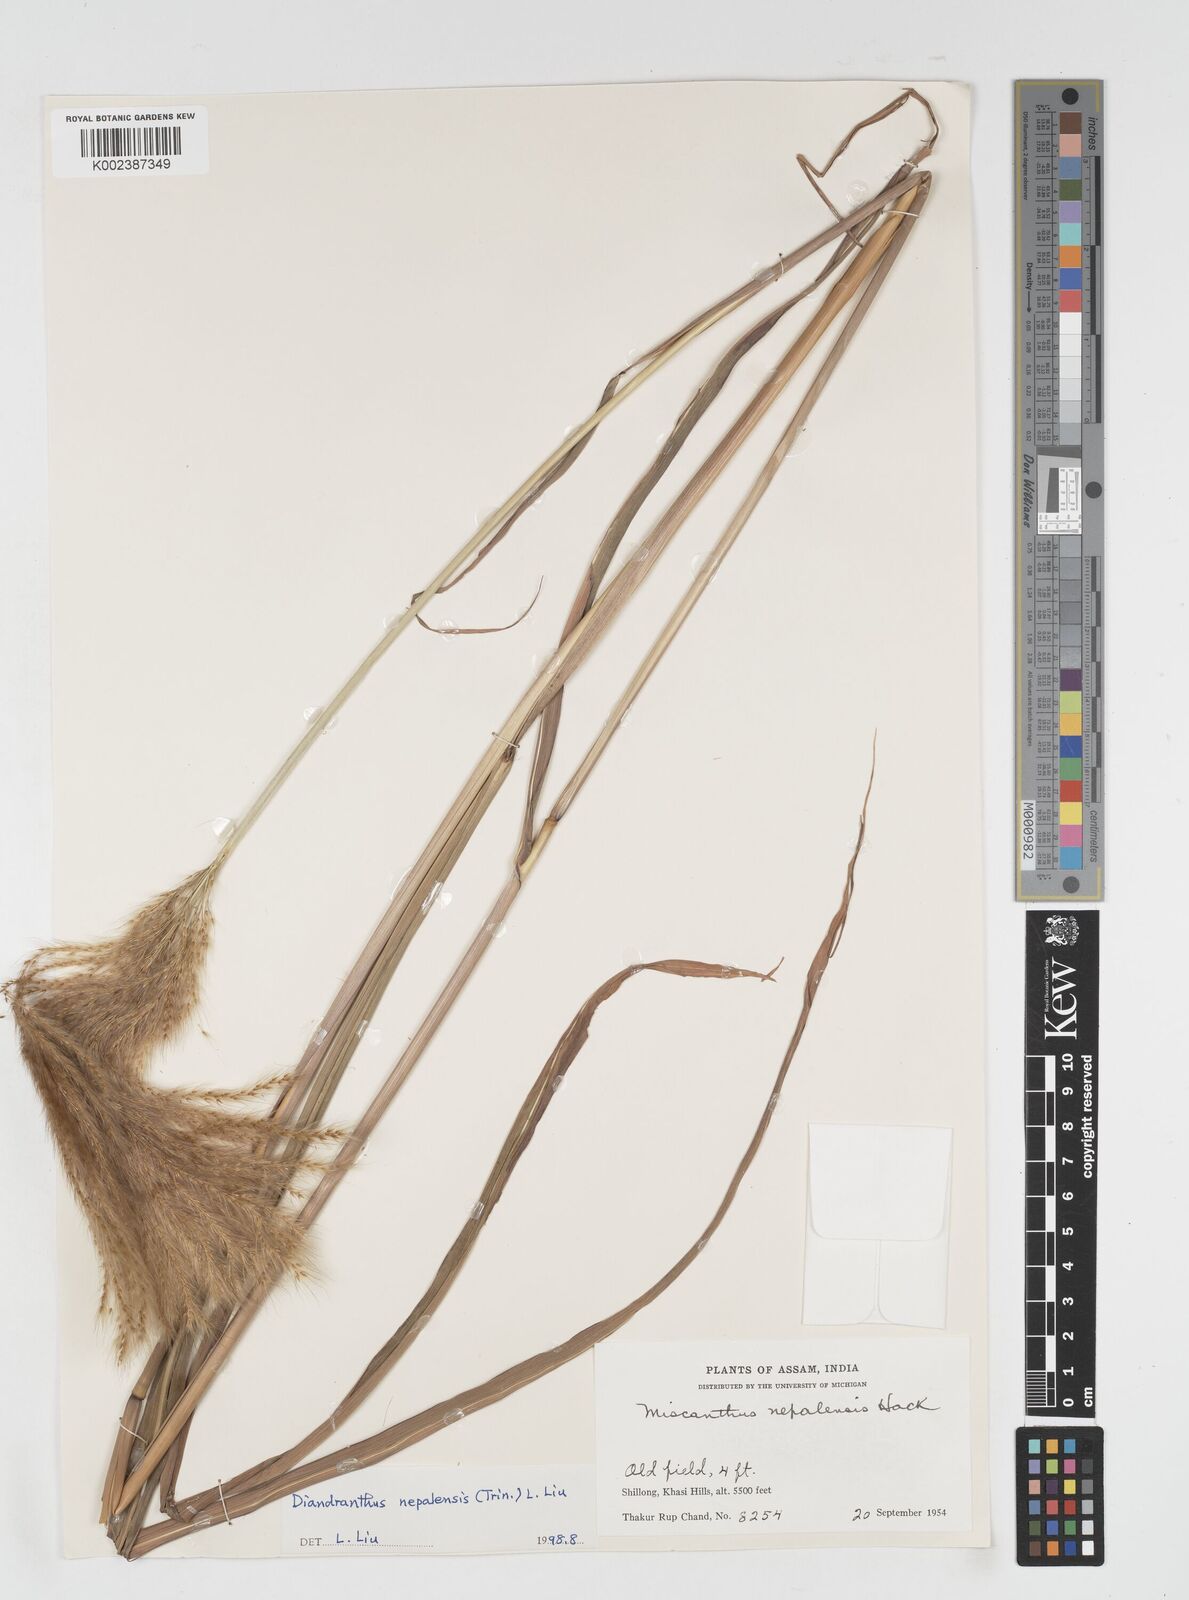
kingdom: Plantae
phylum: Tracheophyta
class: Liliopsida
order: Poales
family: Poaceae
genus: Miscanthus
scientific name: Miscanthus nepalensis
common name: Nepal silver grass
